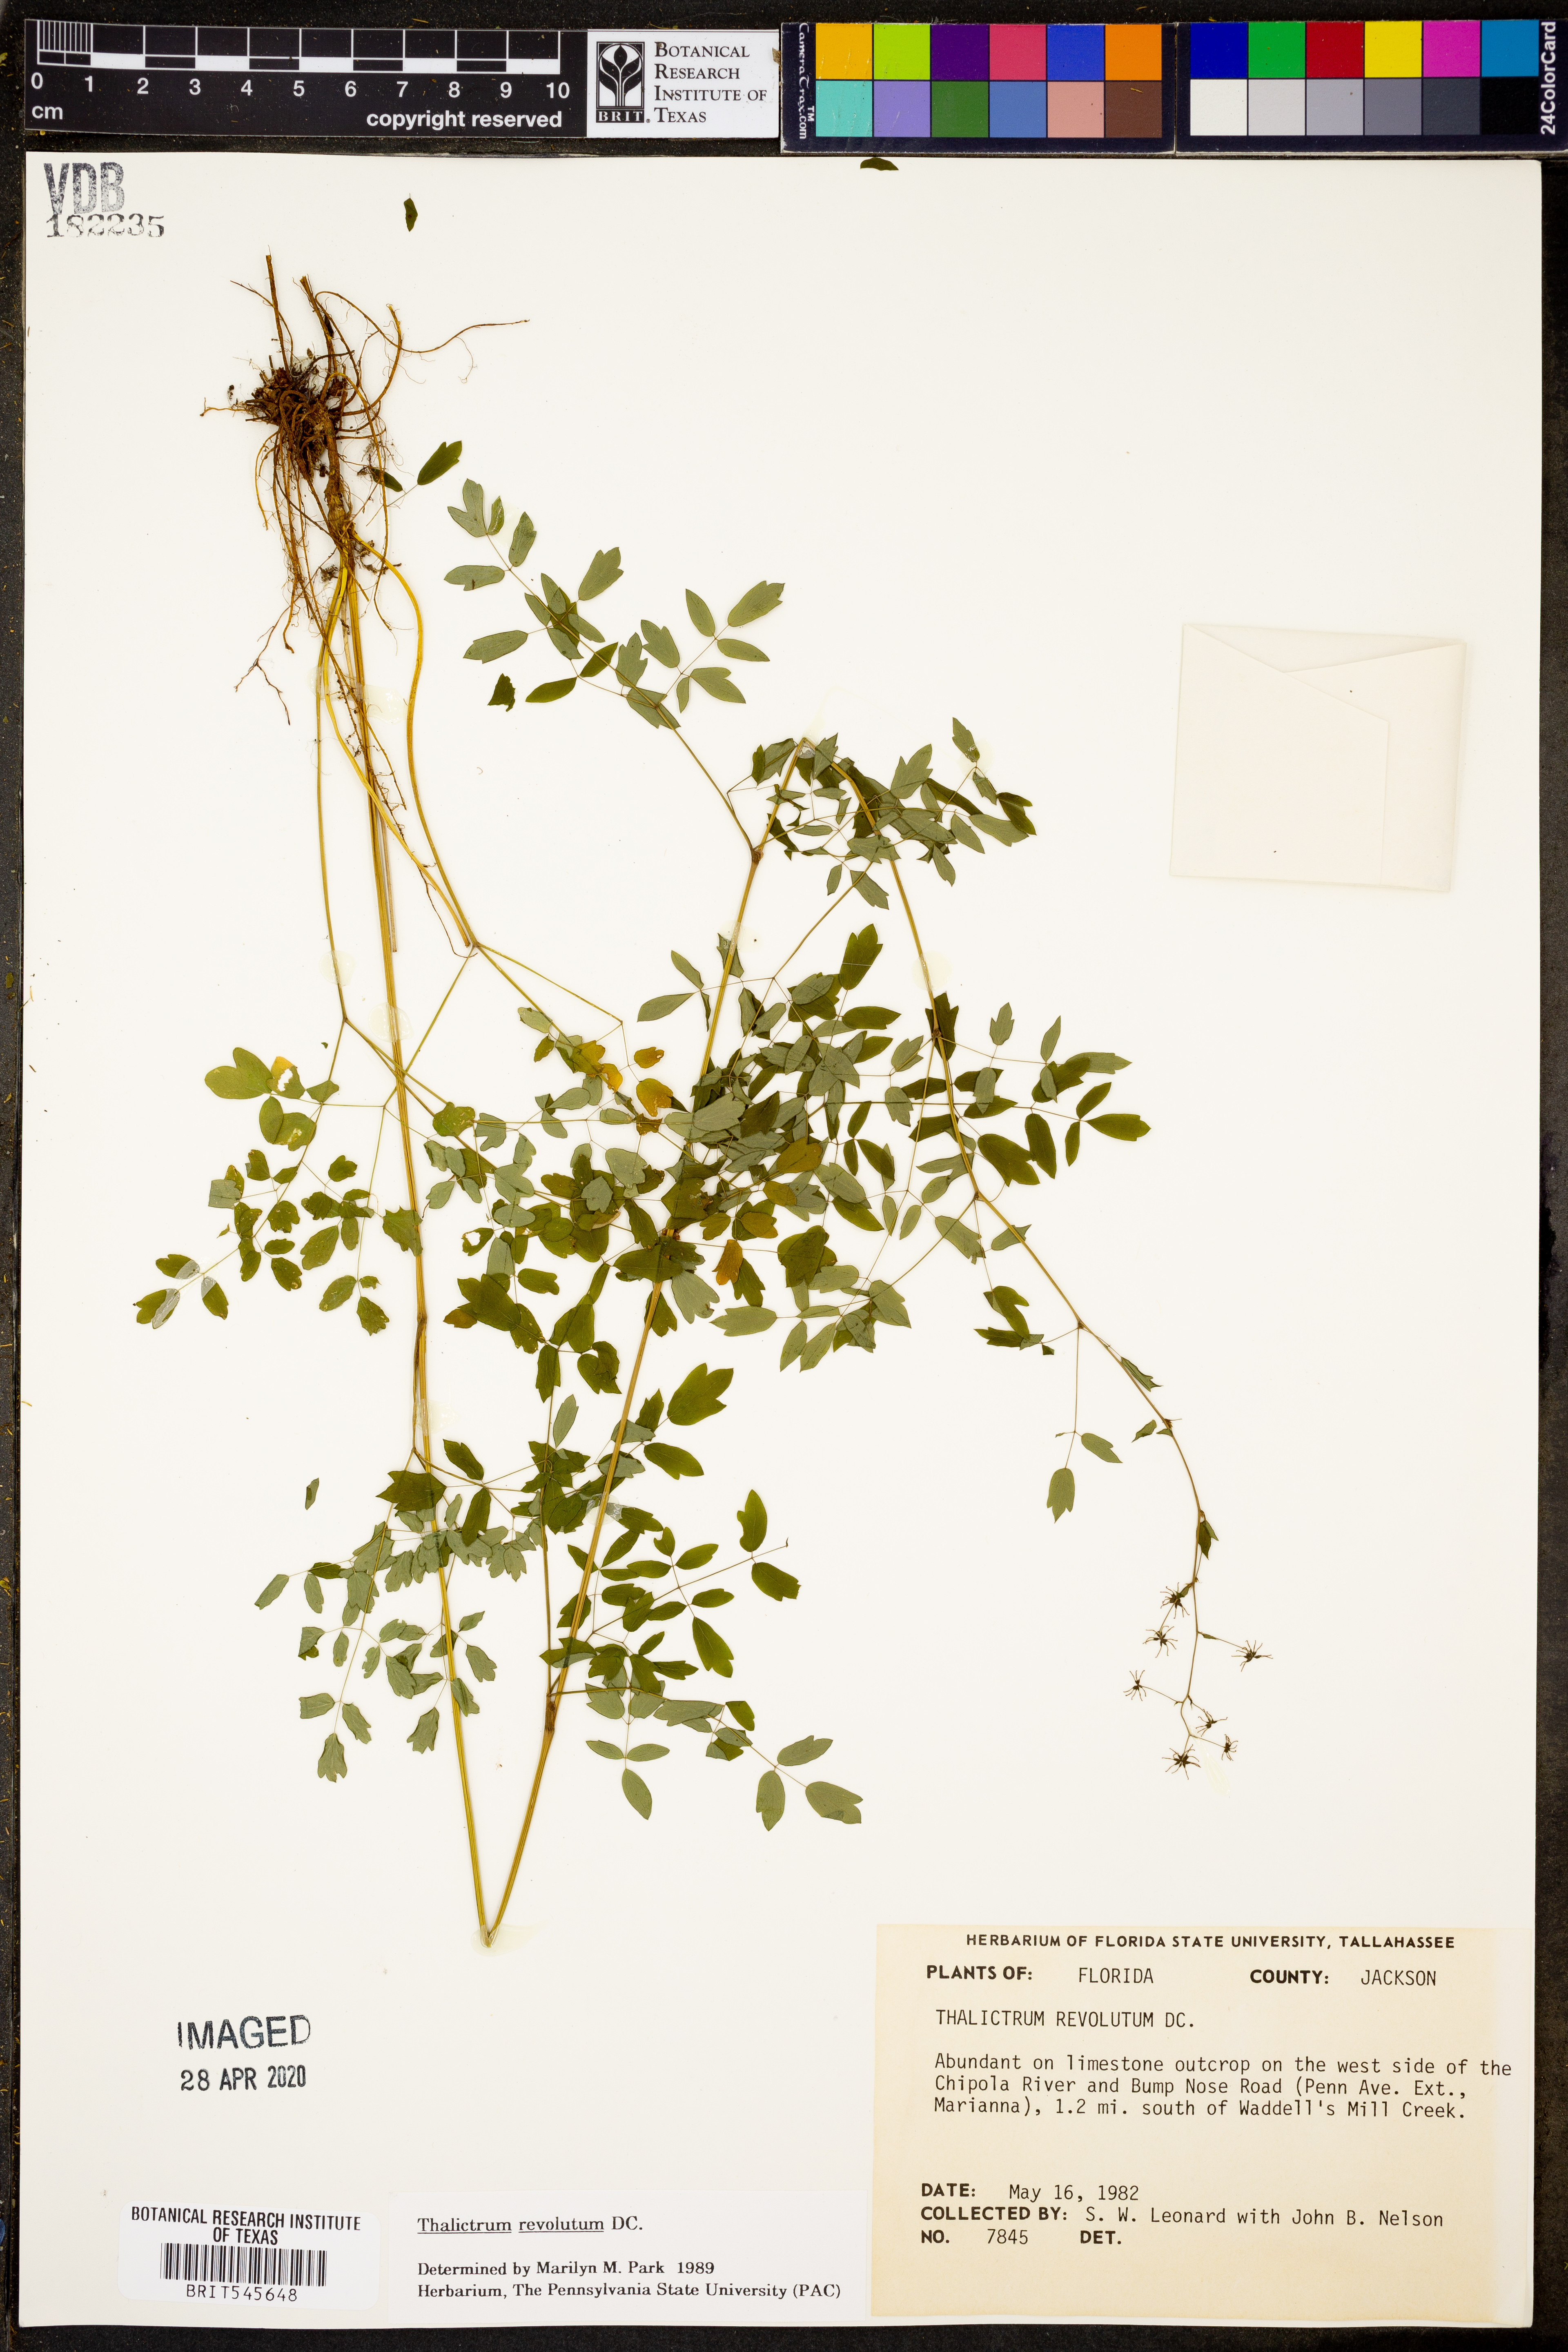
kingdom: Plantae
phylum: Tracheophyta
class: Magnoliopsida
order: Ranunculales
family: Ranunculaceae
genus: Thalictrum
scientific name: Thalictrum revolutum
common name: Waxy meadow-rue
